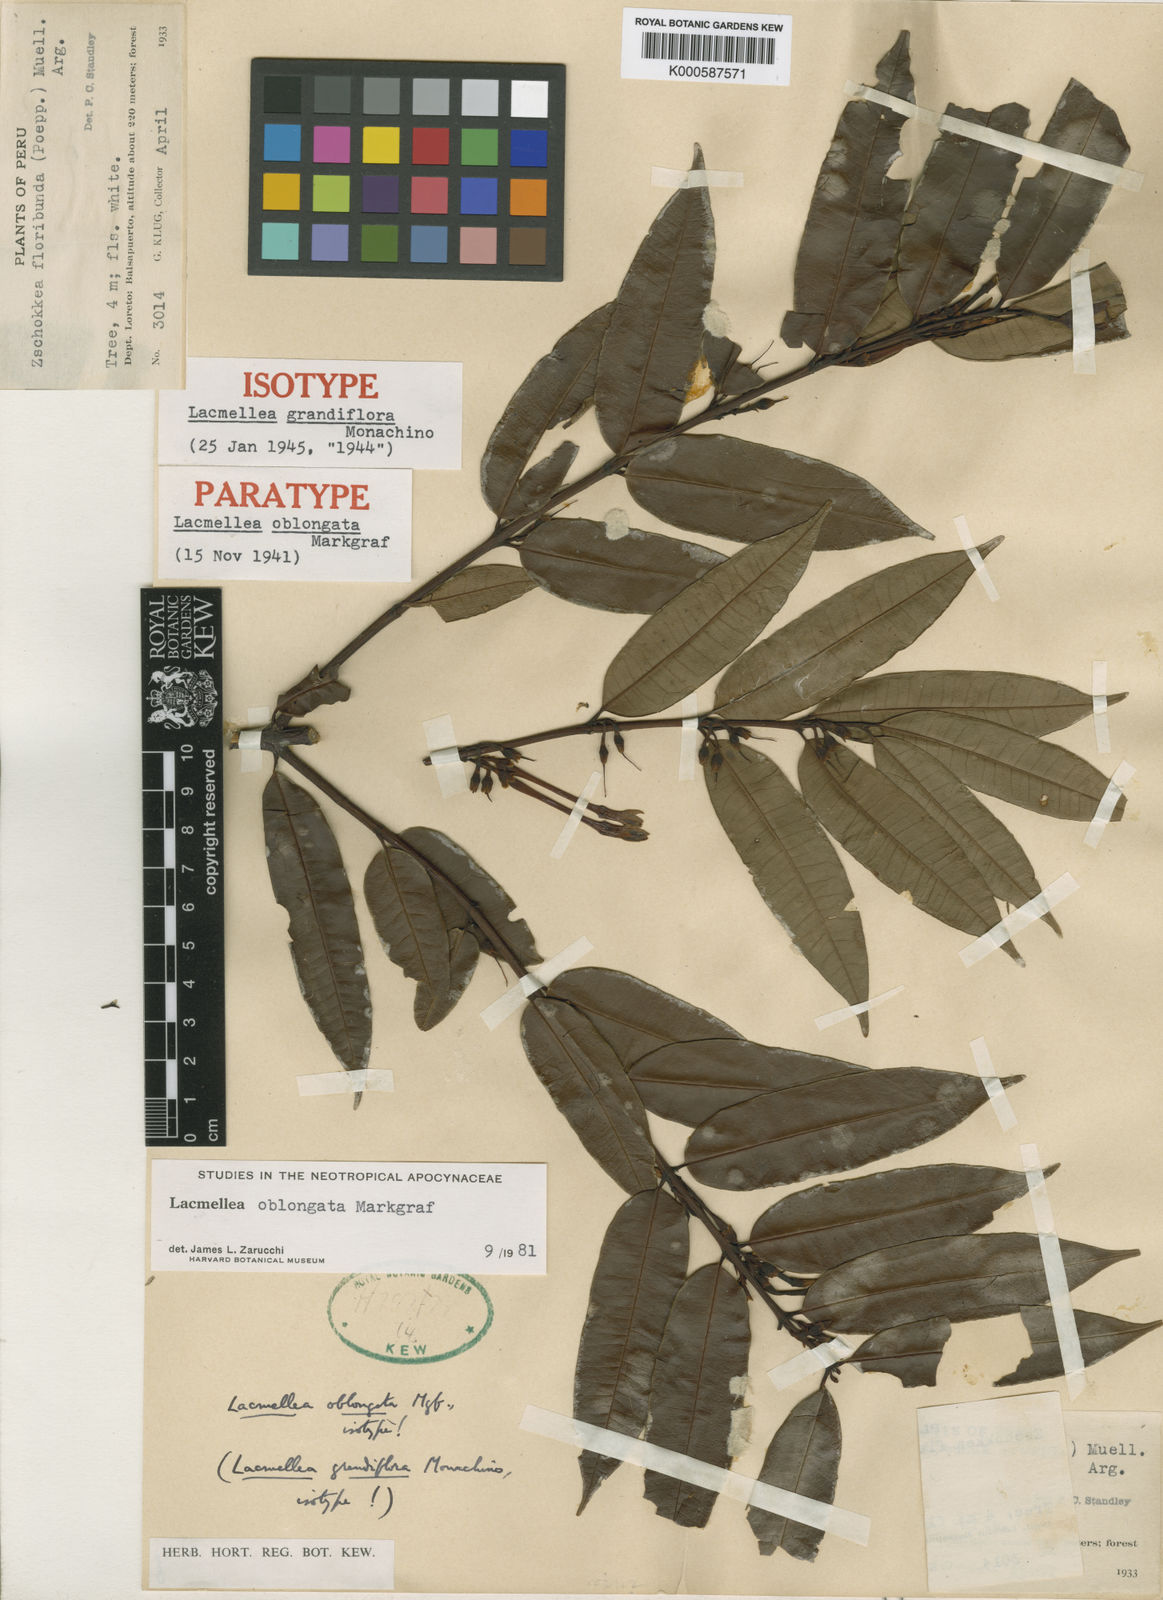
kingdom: Plantae
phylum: Tracheophyta
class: Magnoliopsida
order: Gentianales
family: Apocynaceae
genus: Lacmellea
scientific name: Lacmellea oblongata
